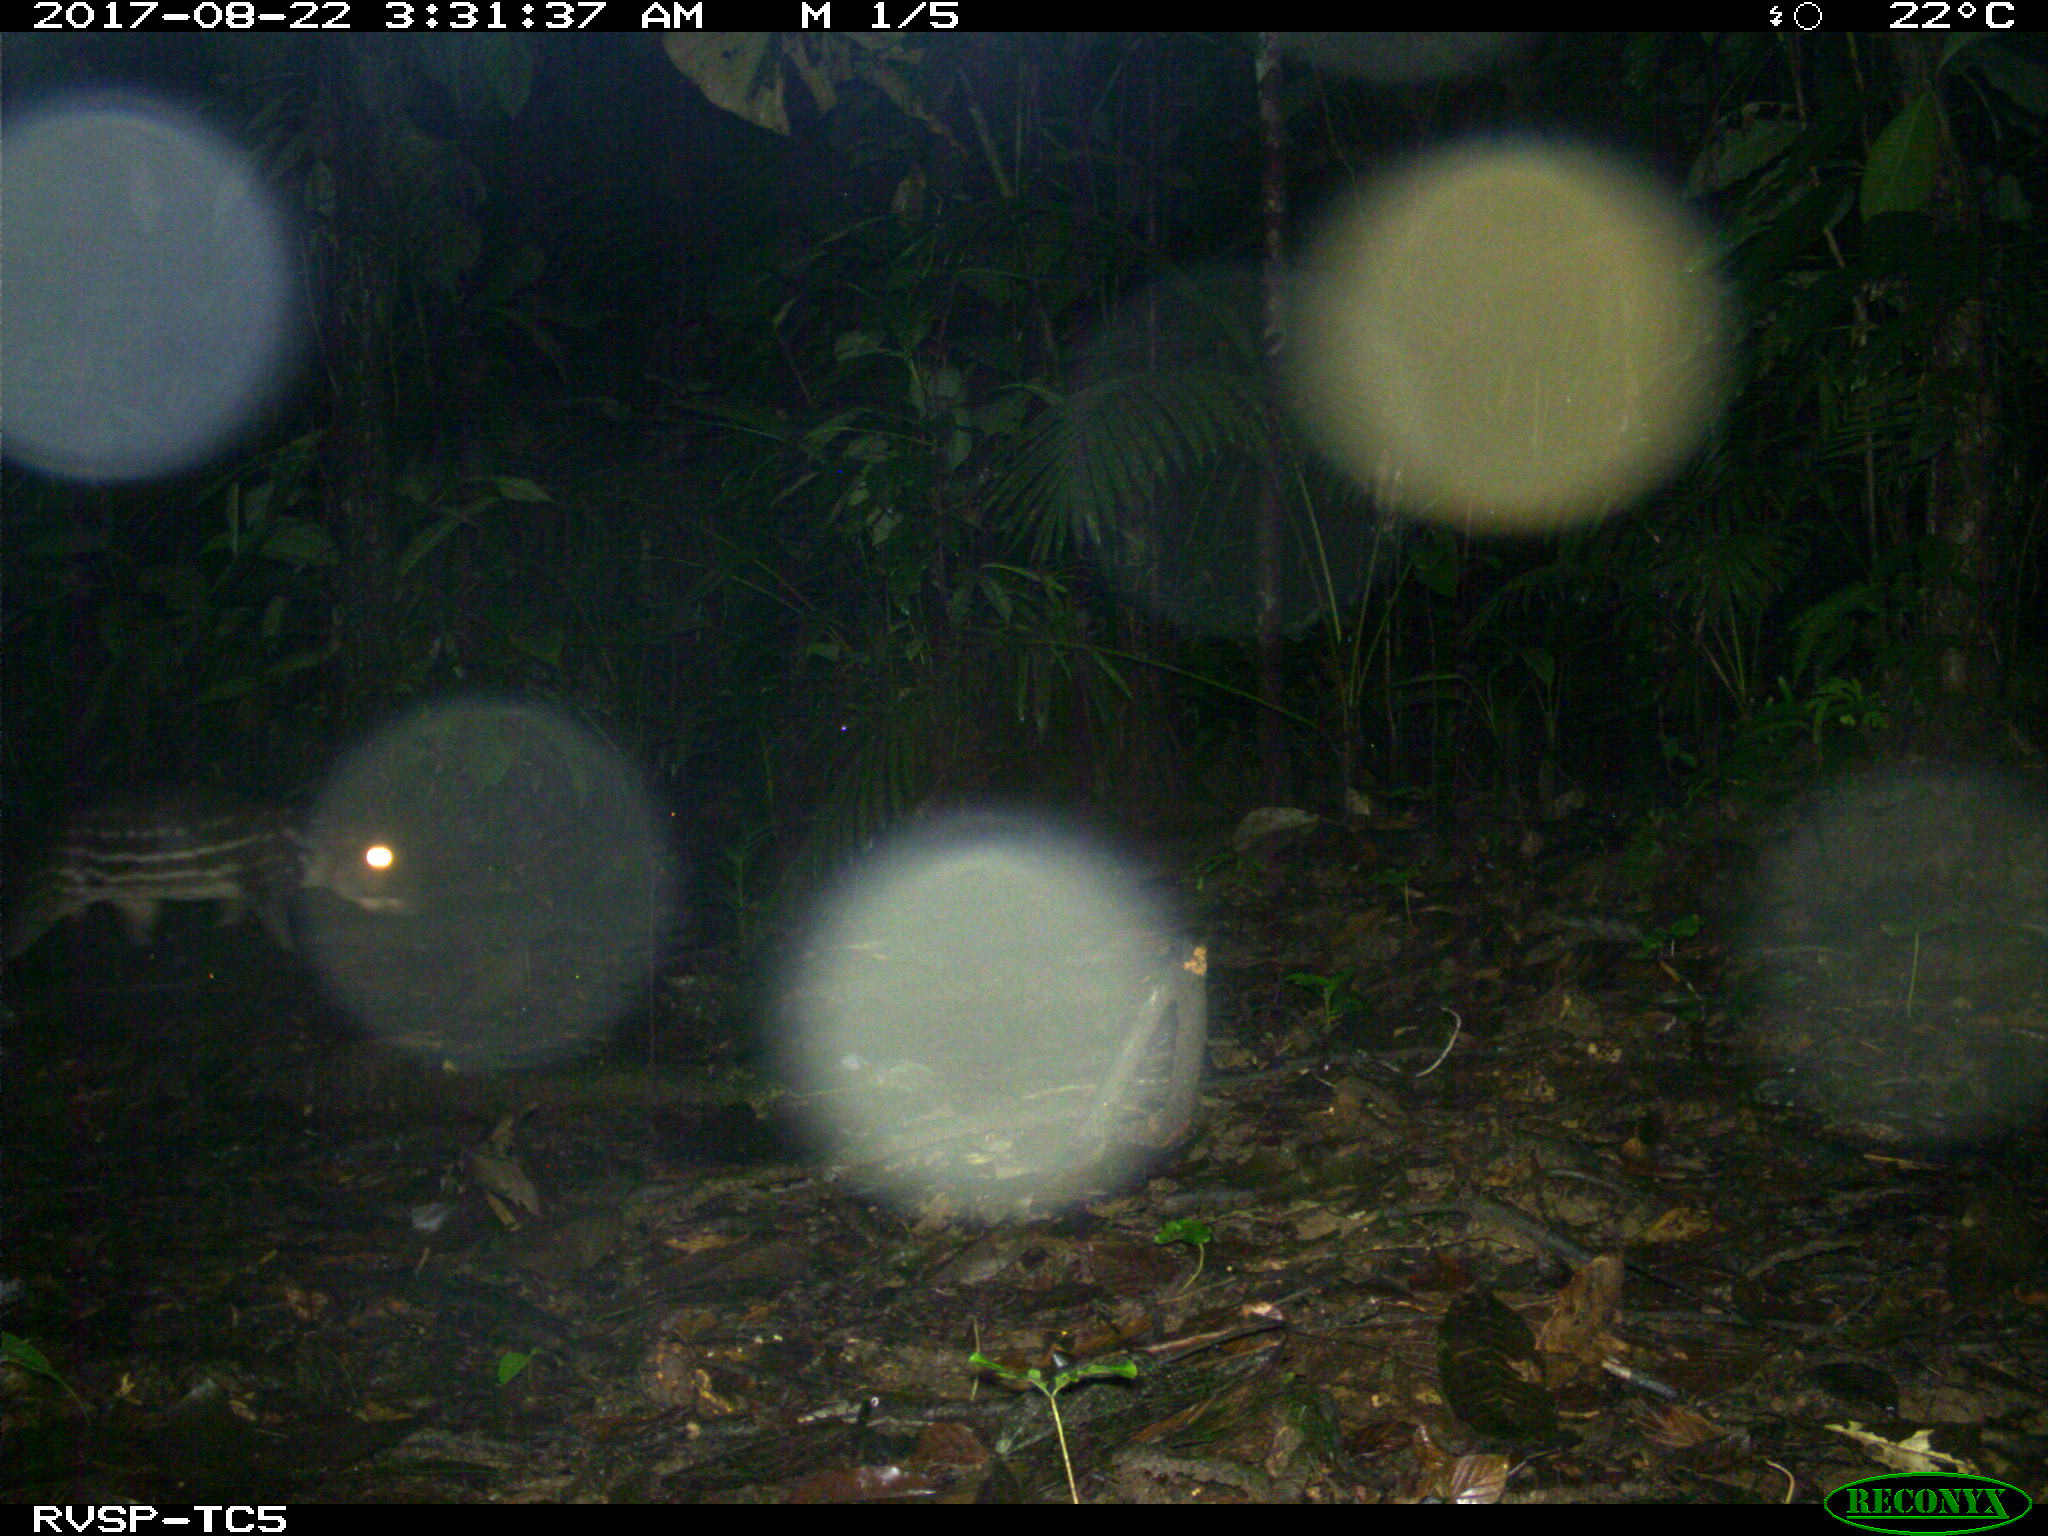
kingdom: Animalia
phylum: Chordata
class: Mammalia
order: Rodentia
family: Cuniculidae
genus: Cuniculus
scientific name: Cuniculus paca
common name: Lowland paca
